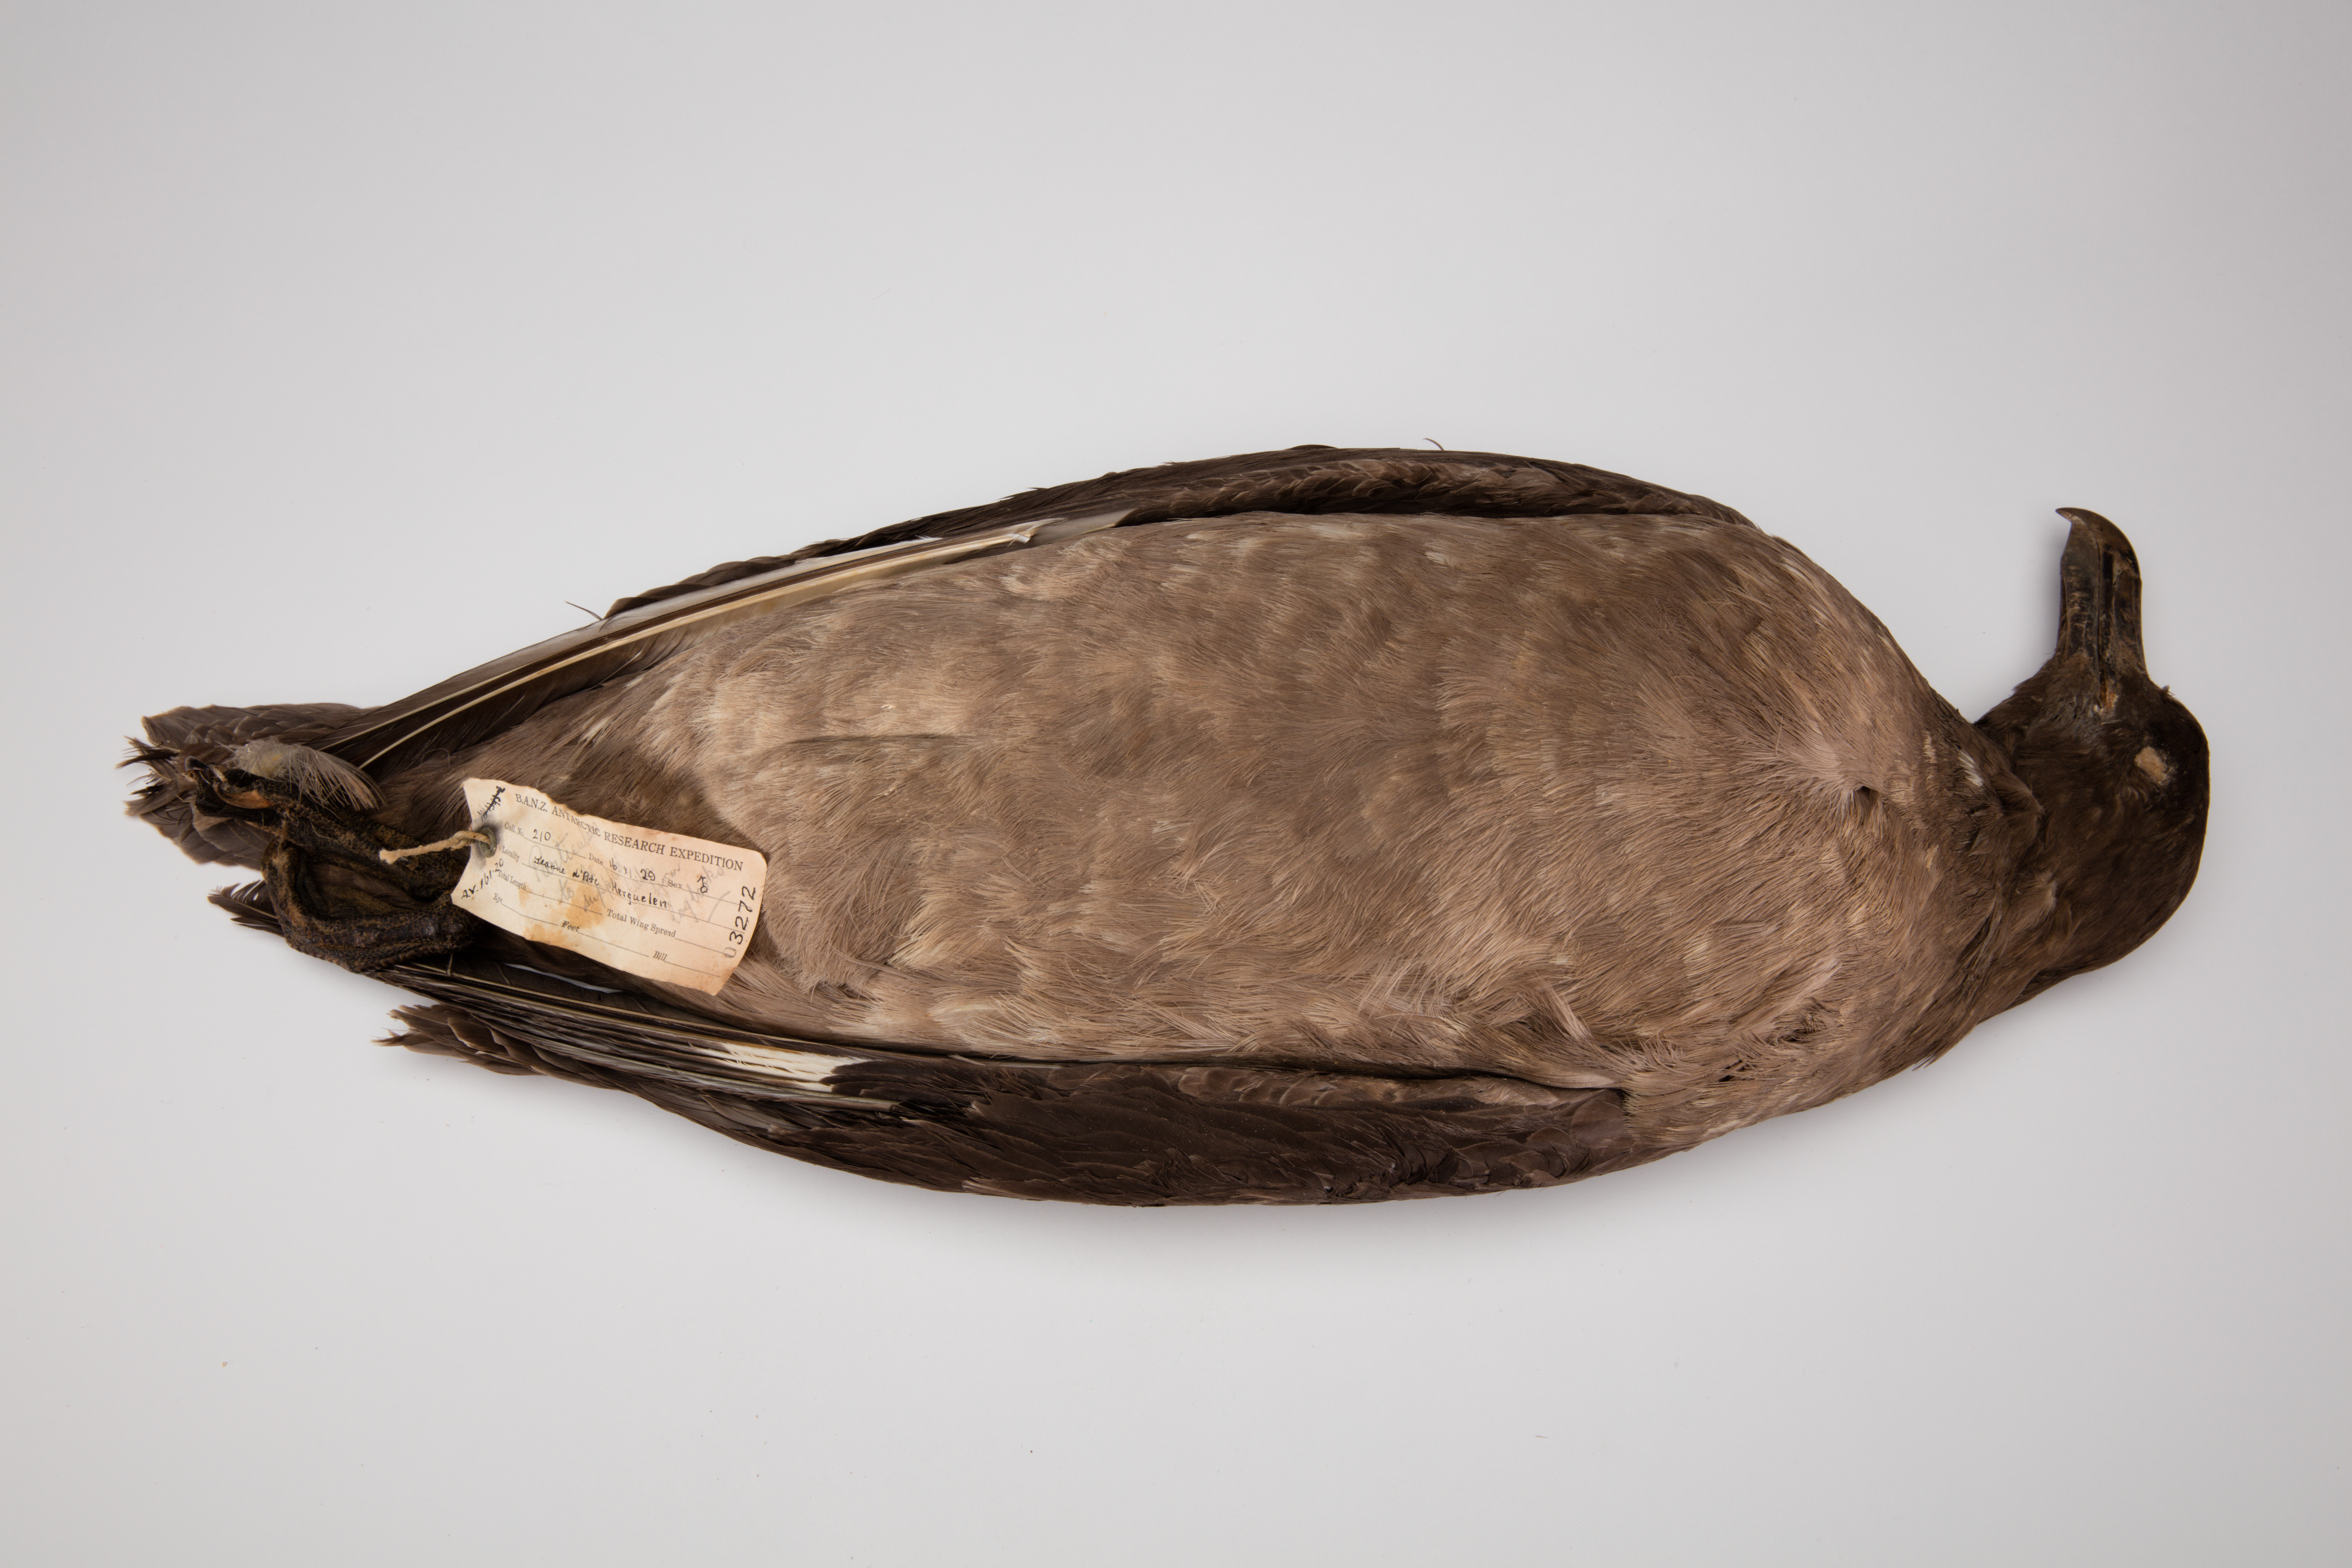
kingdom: Animalia
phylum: Chordata
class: Aves
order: Charadriiformes
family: Stercorariidae
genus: Stercorarius
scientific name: Stercorarius antarcticus
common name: Brown skua
